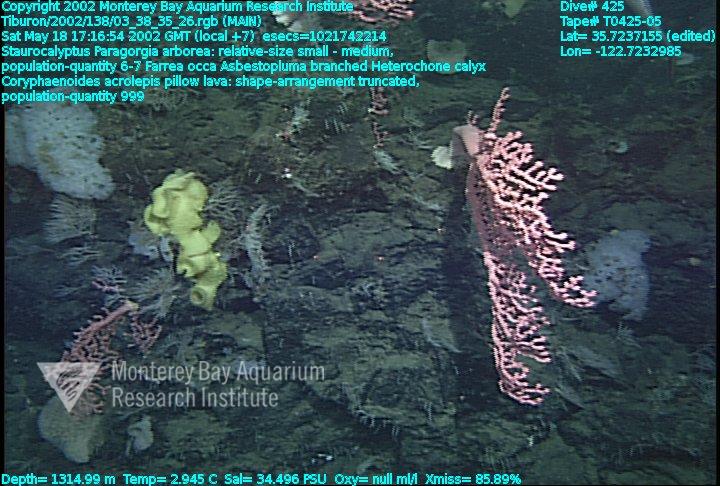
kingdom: Animalia
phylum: Porifera
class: Hexactinellida
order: Sceptrulophora
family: Farreidae
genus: Farrea
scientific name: Farrea occa
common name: Reversed glass sponge
